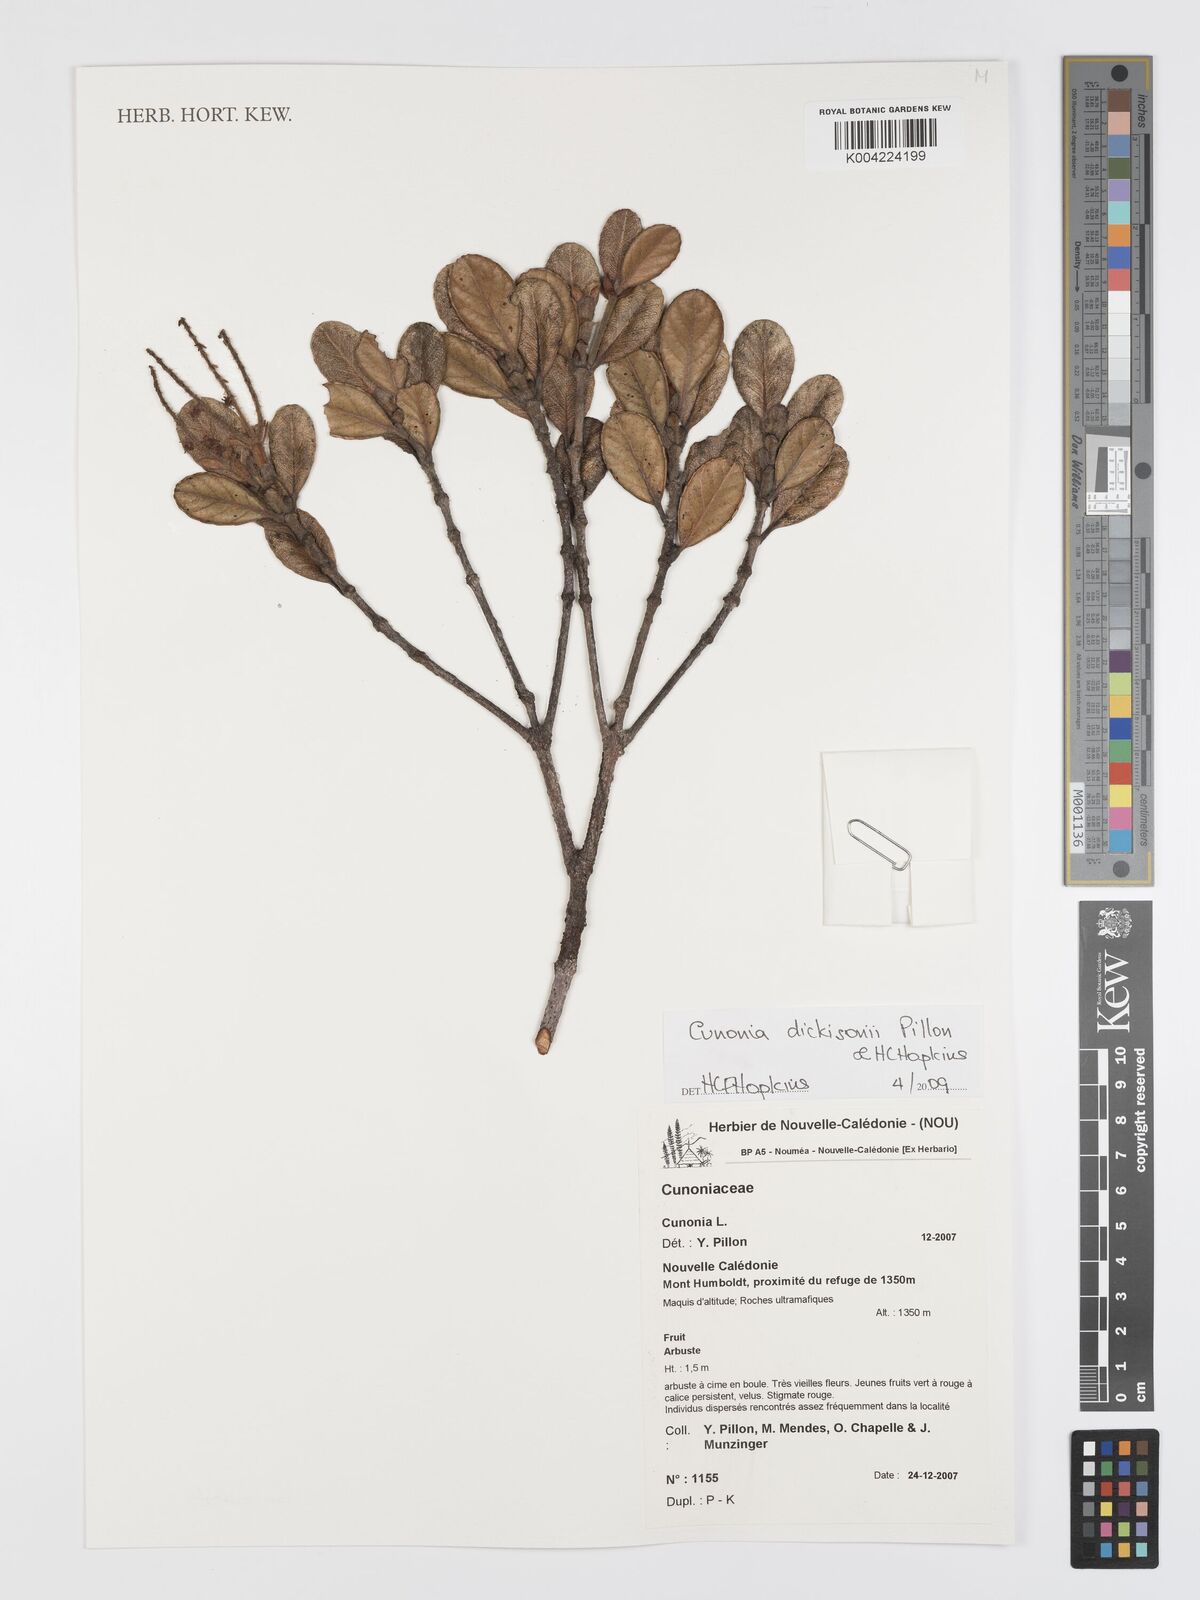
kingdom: Plantae
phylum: Tracheophyta
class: Magnoliopsida
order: Oxalidales
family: Cunoniaceae
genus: Cunonia
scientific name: Cunonia dickisonii
